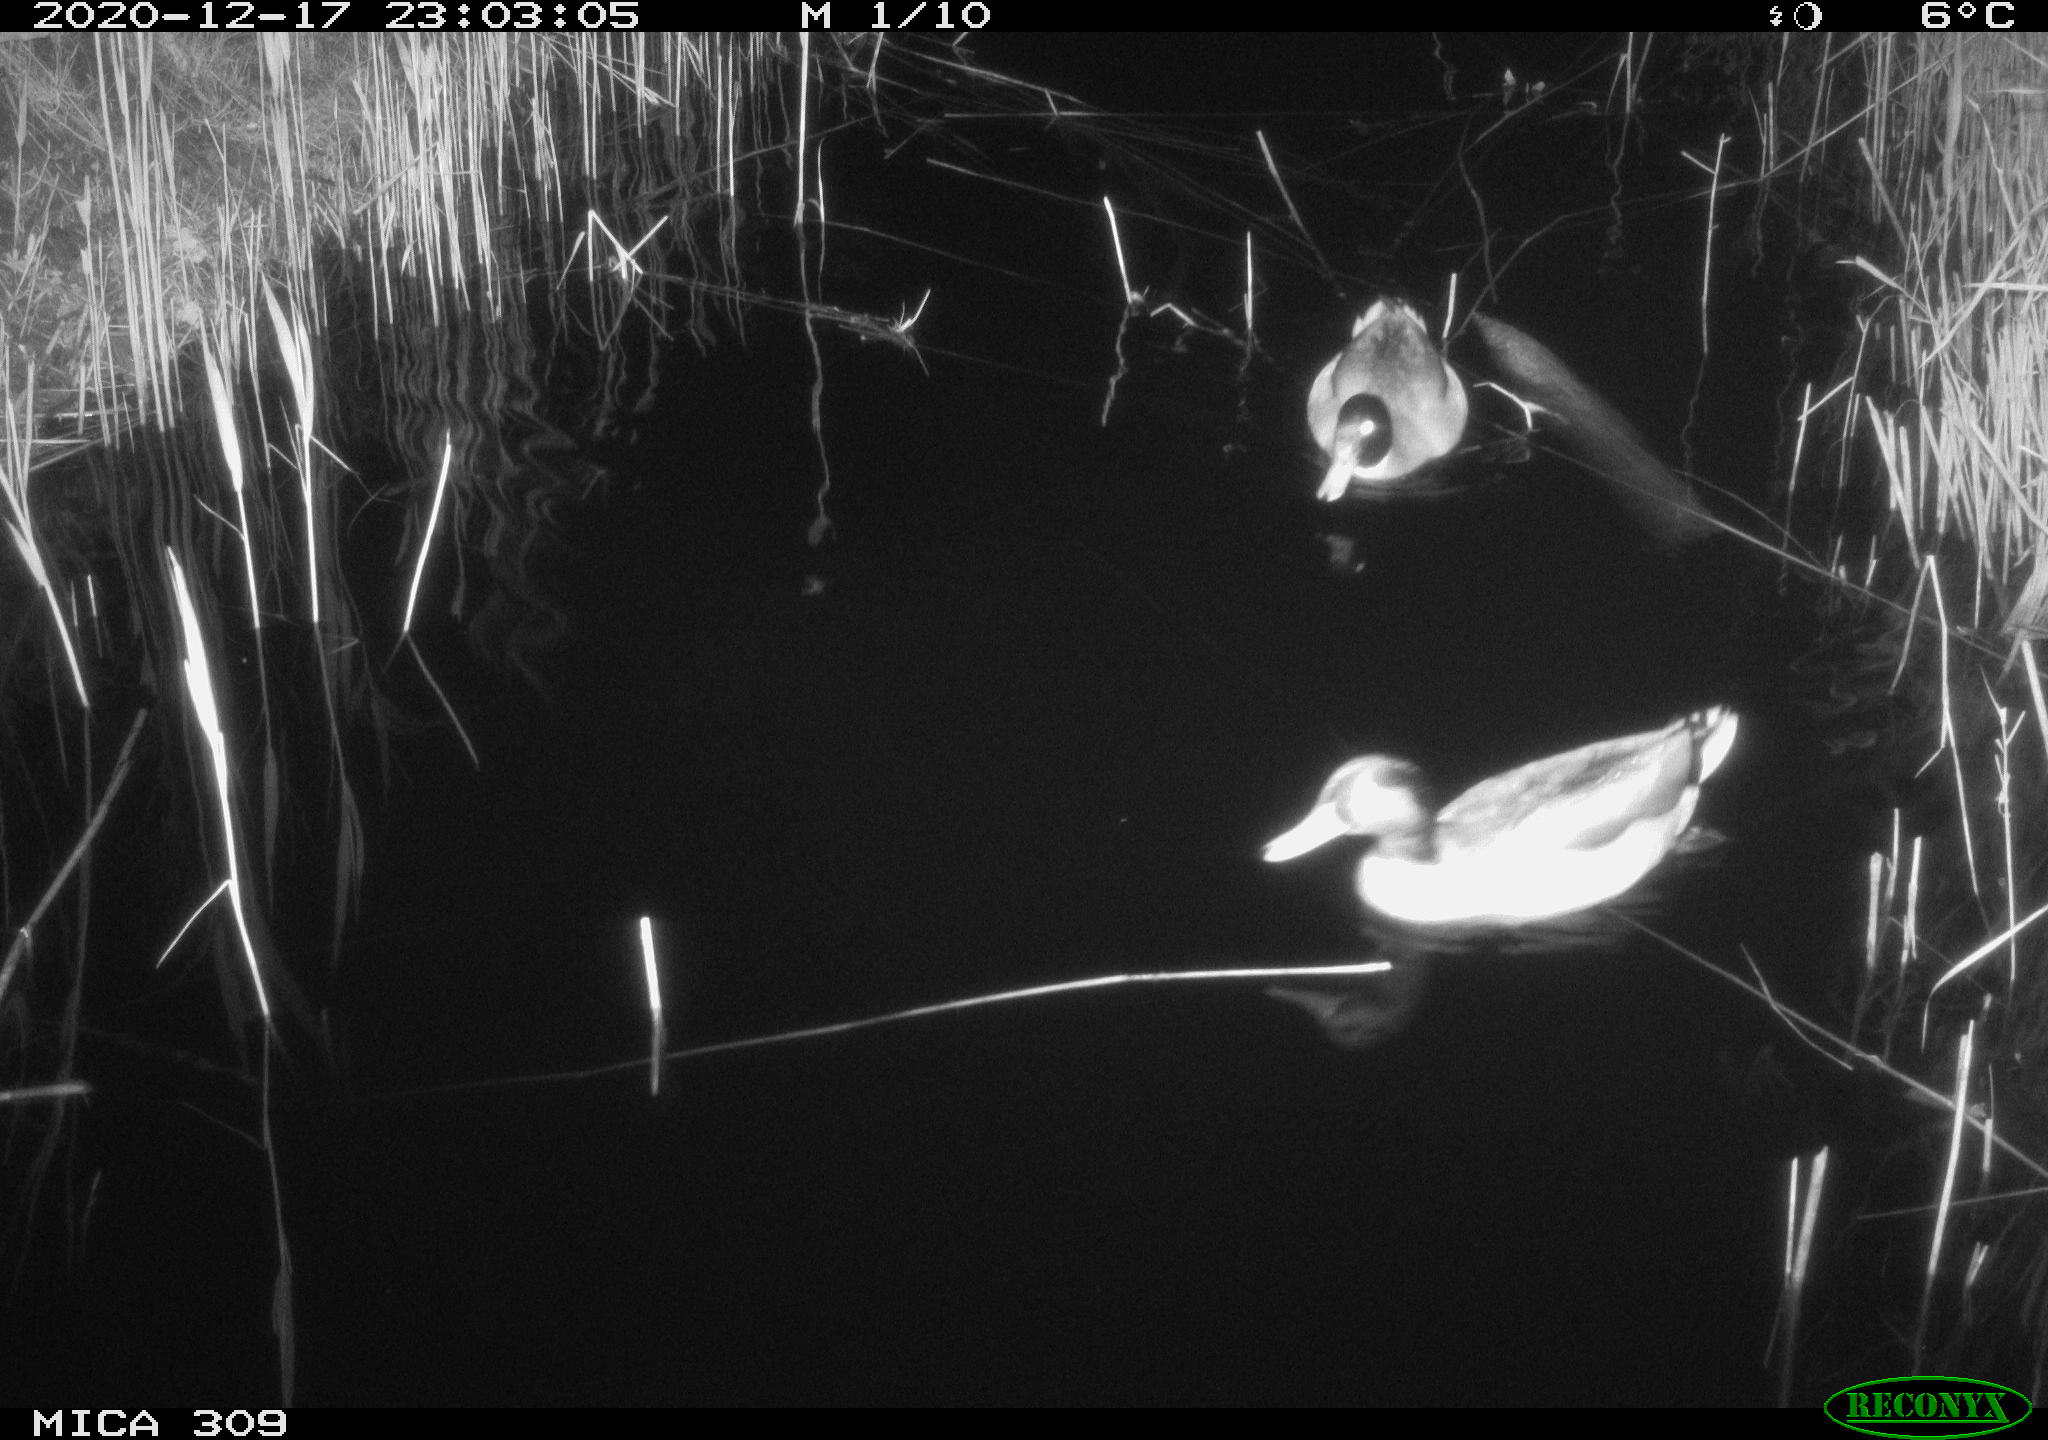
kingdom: Animalia
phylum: Chordata
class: Aves
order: Anseriformes
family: Anatidae
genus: Anas
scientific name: Anas platyrhynchos
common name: Mallard
